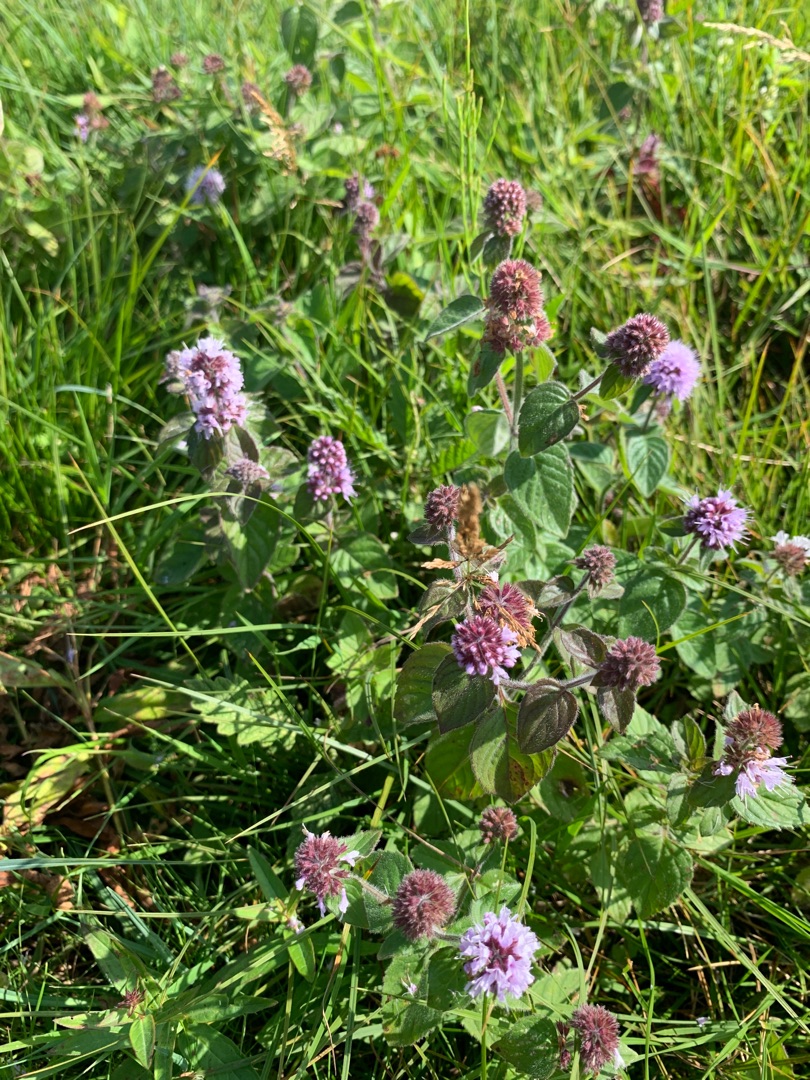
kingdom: Plantae
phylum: Tracheophyta
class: Magnoliopsida
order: Lamiales
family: Lamiaceae
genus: Mentha
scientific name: Mentha aquatica
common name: Vand-mynte
